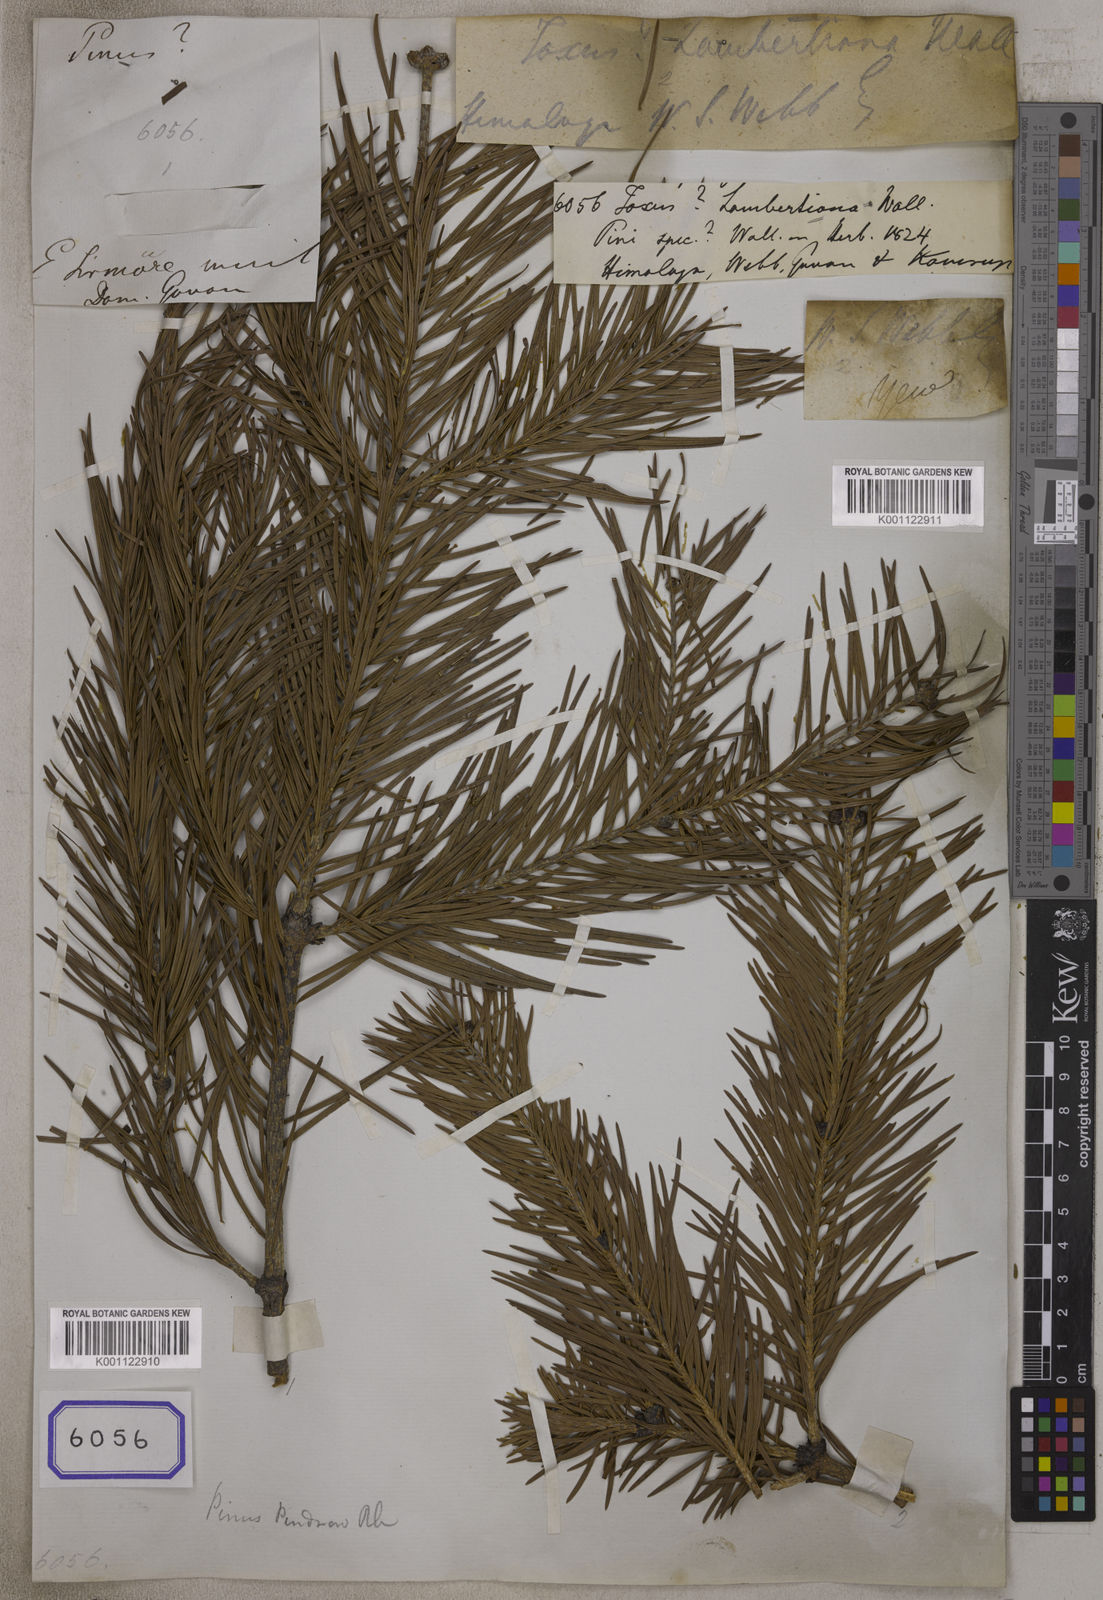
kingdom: Plantae
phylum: Tracheophyta
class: Pinopsida
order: Pinales
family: Pinaceae
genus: Abies
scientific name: Abies pindrow
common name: Pindrow fir
